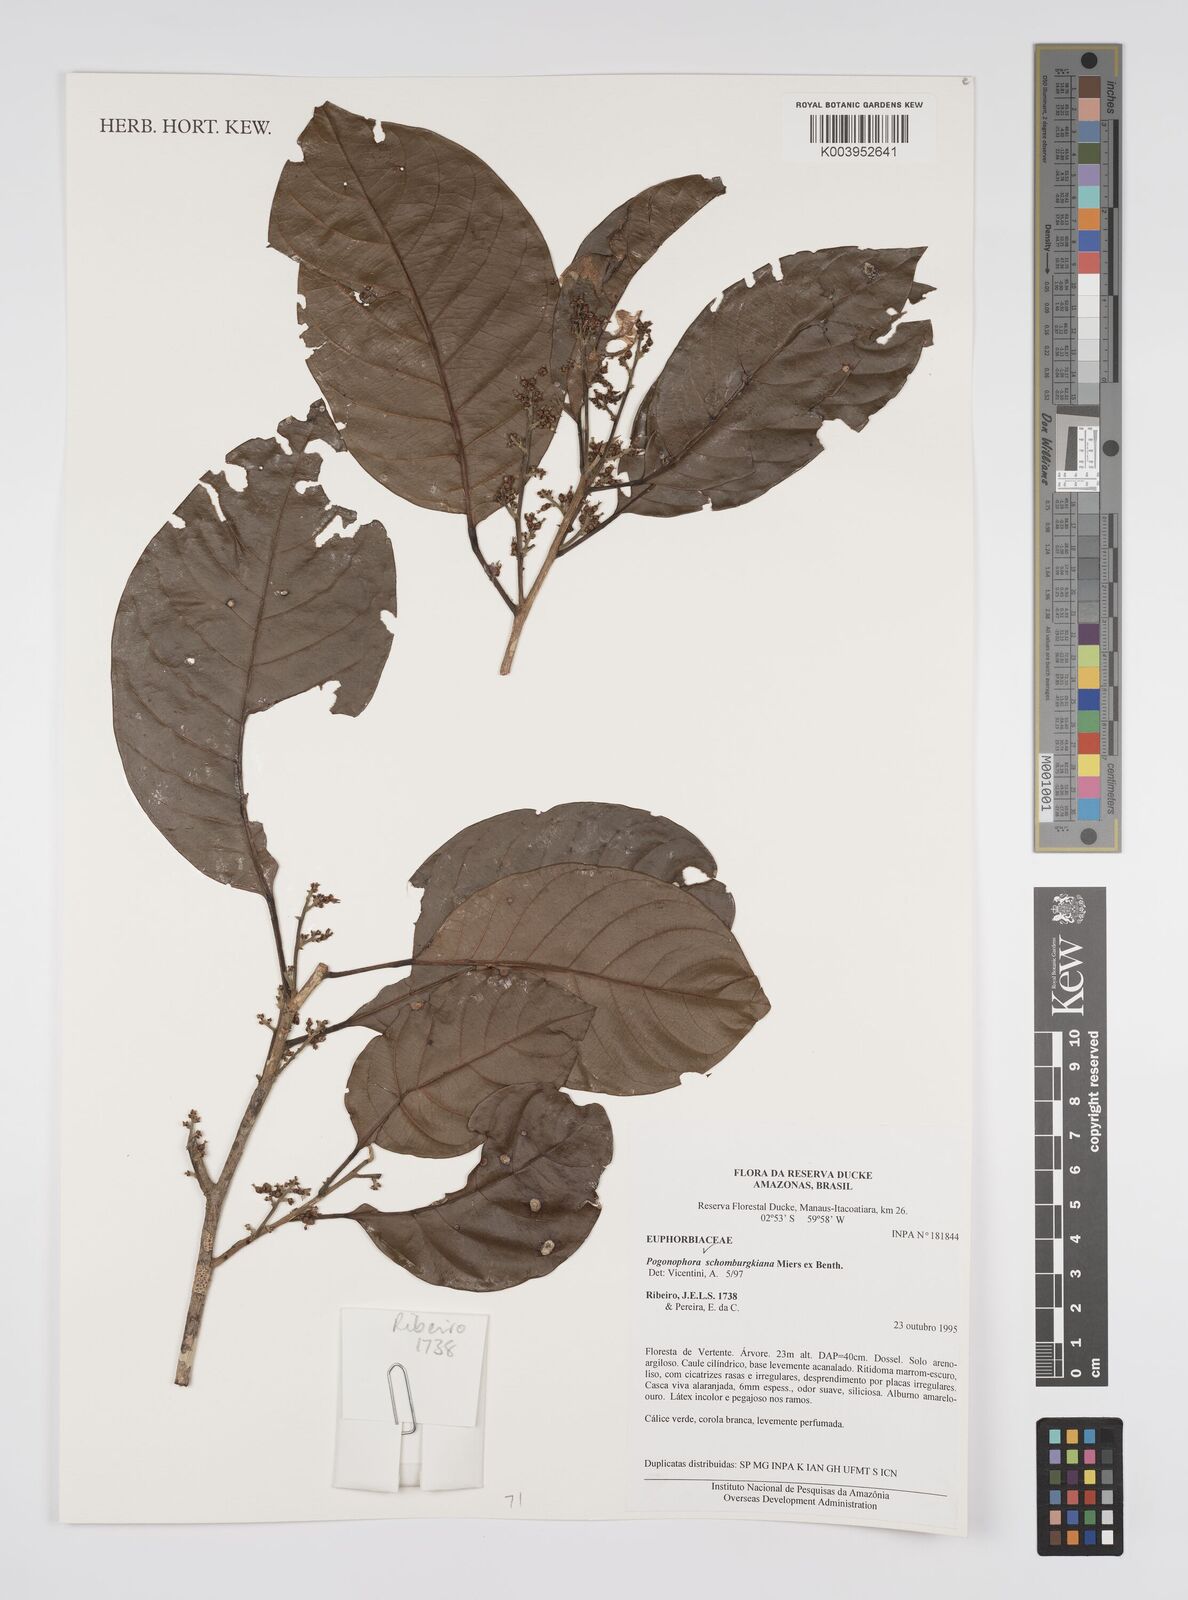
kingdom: Plantae
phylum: Tracheophyta
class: Magnoliopsida
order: Malpighiales
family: Peraceae
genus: Pogonophora
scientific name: Pogonophora schomburgkiana
